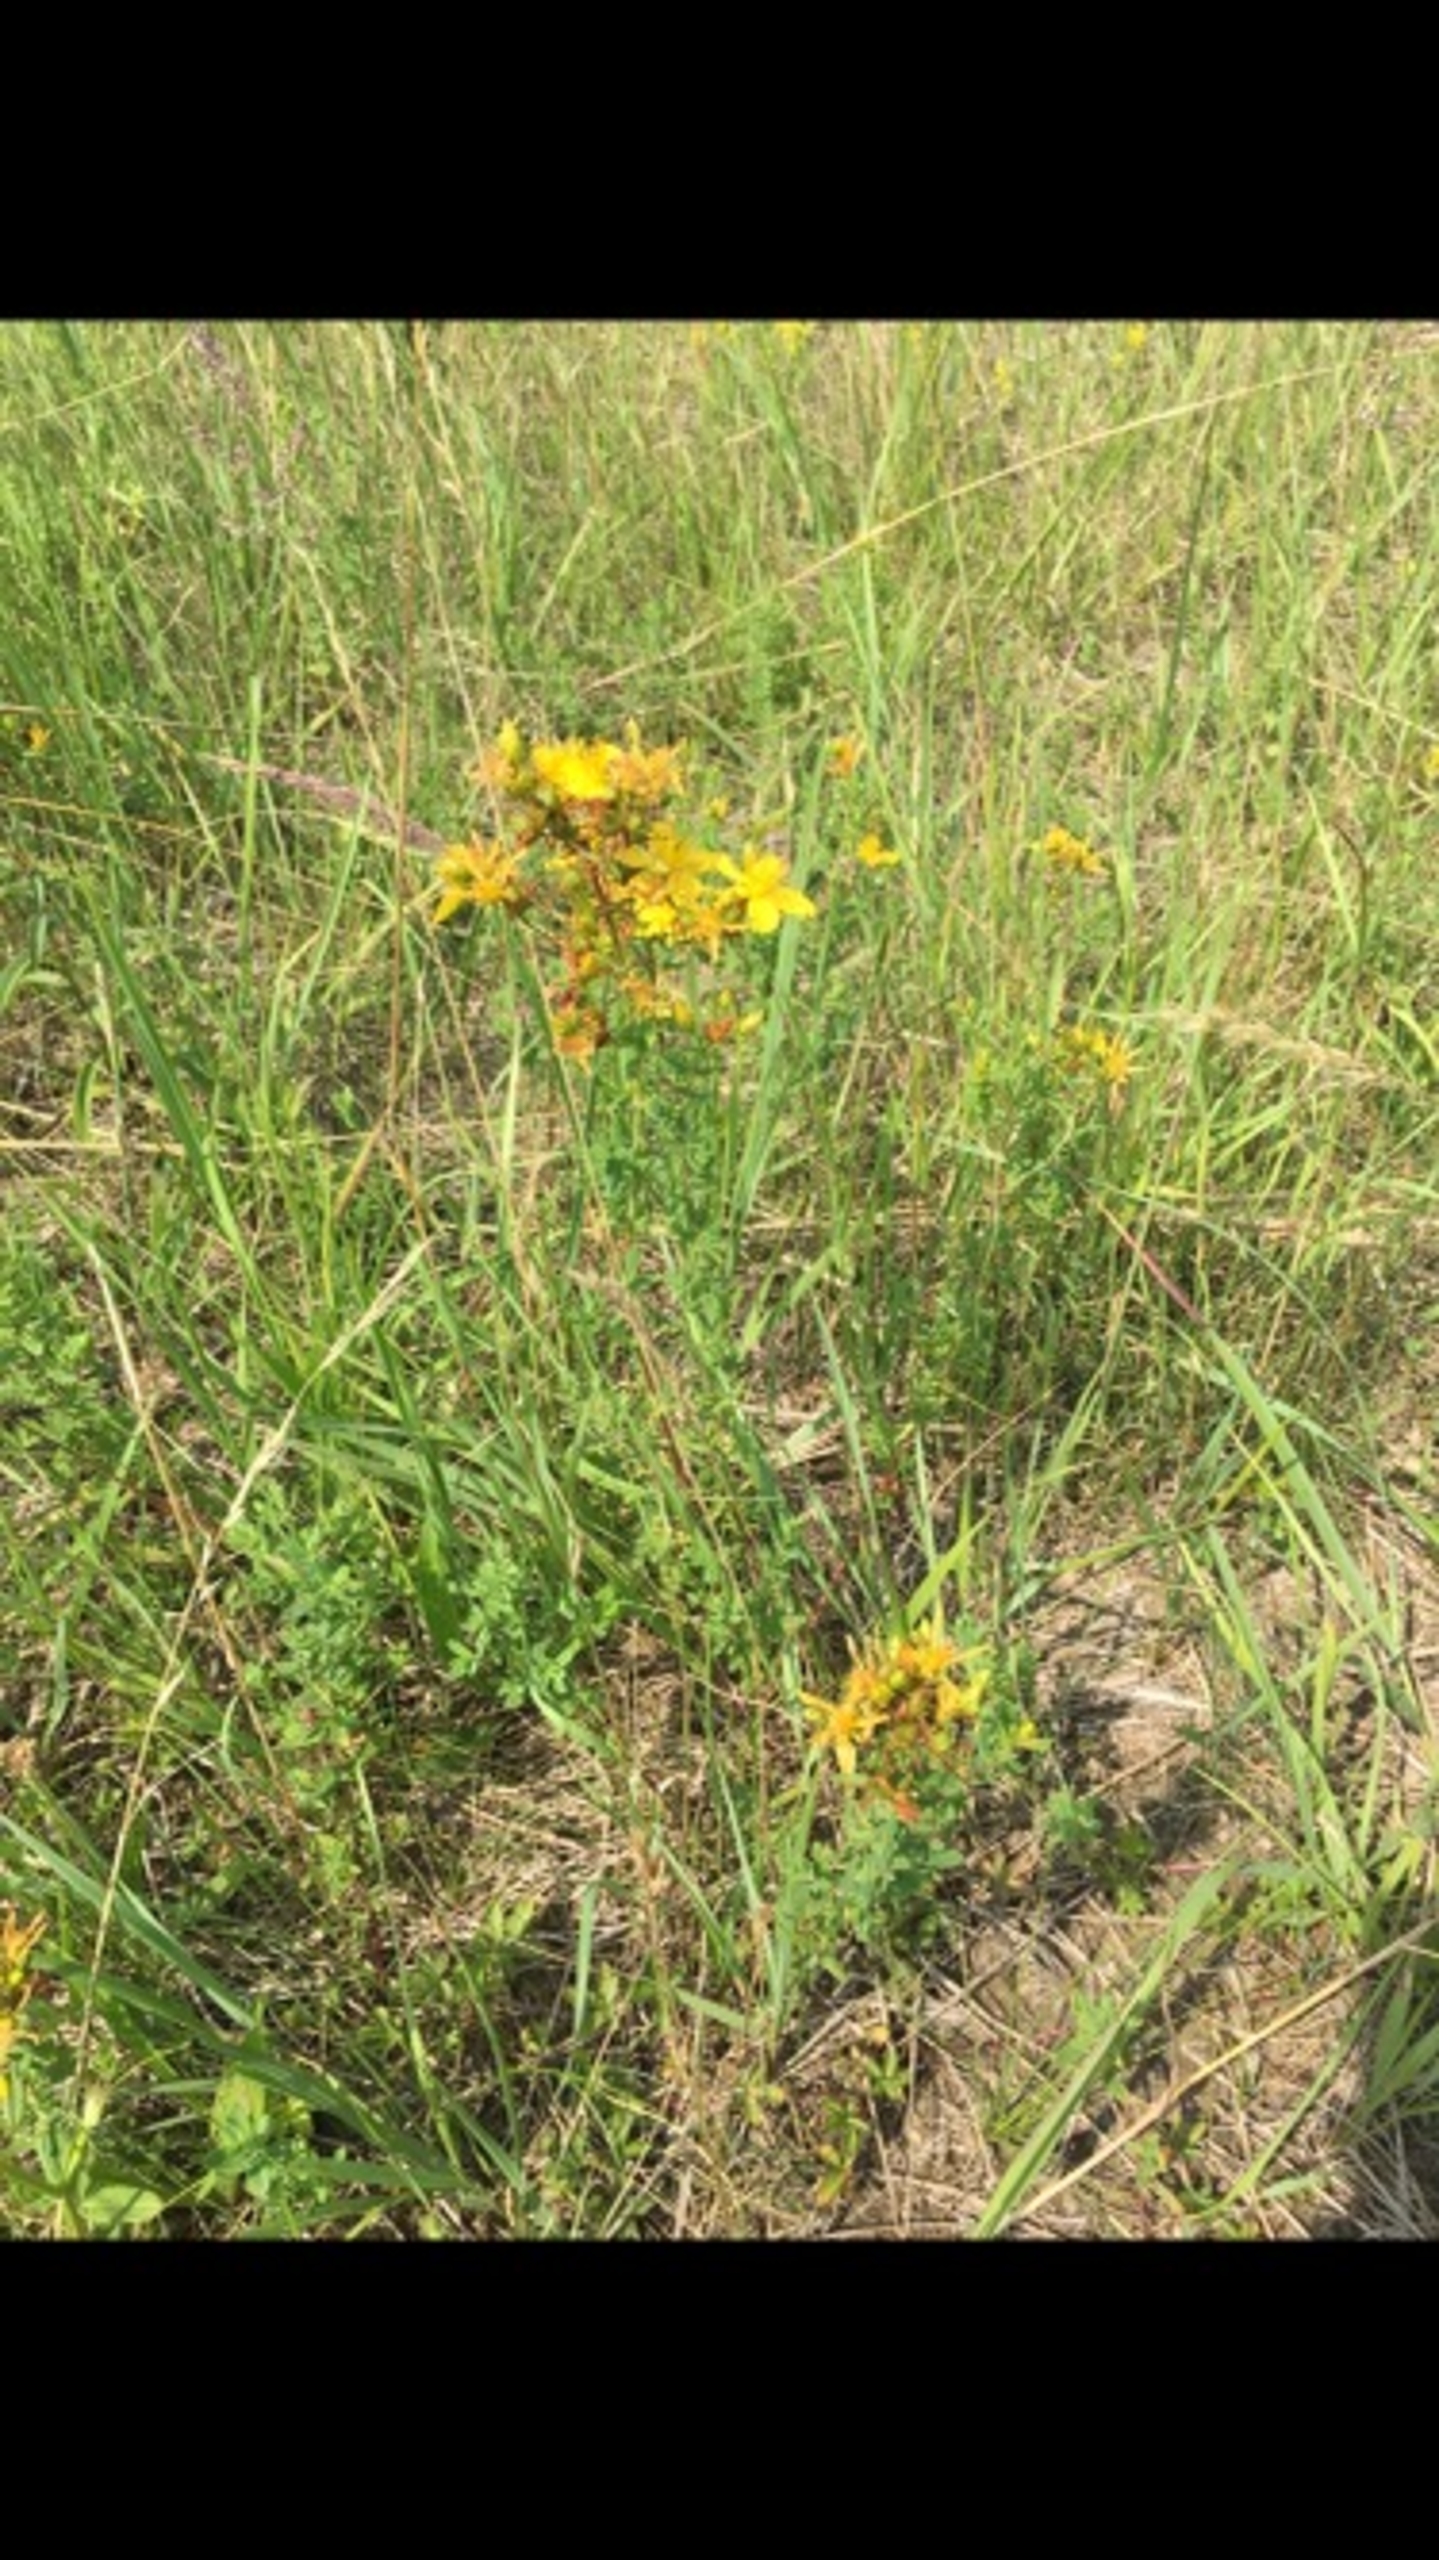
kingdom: Plantae
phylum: Tracheophyta
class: Magnoliopsida
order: Malpighiales
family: Hypericaceae
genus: Hypericum
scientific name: Hypericum perforatum
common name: Prikbladet perikon
